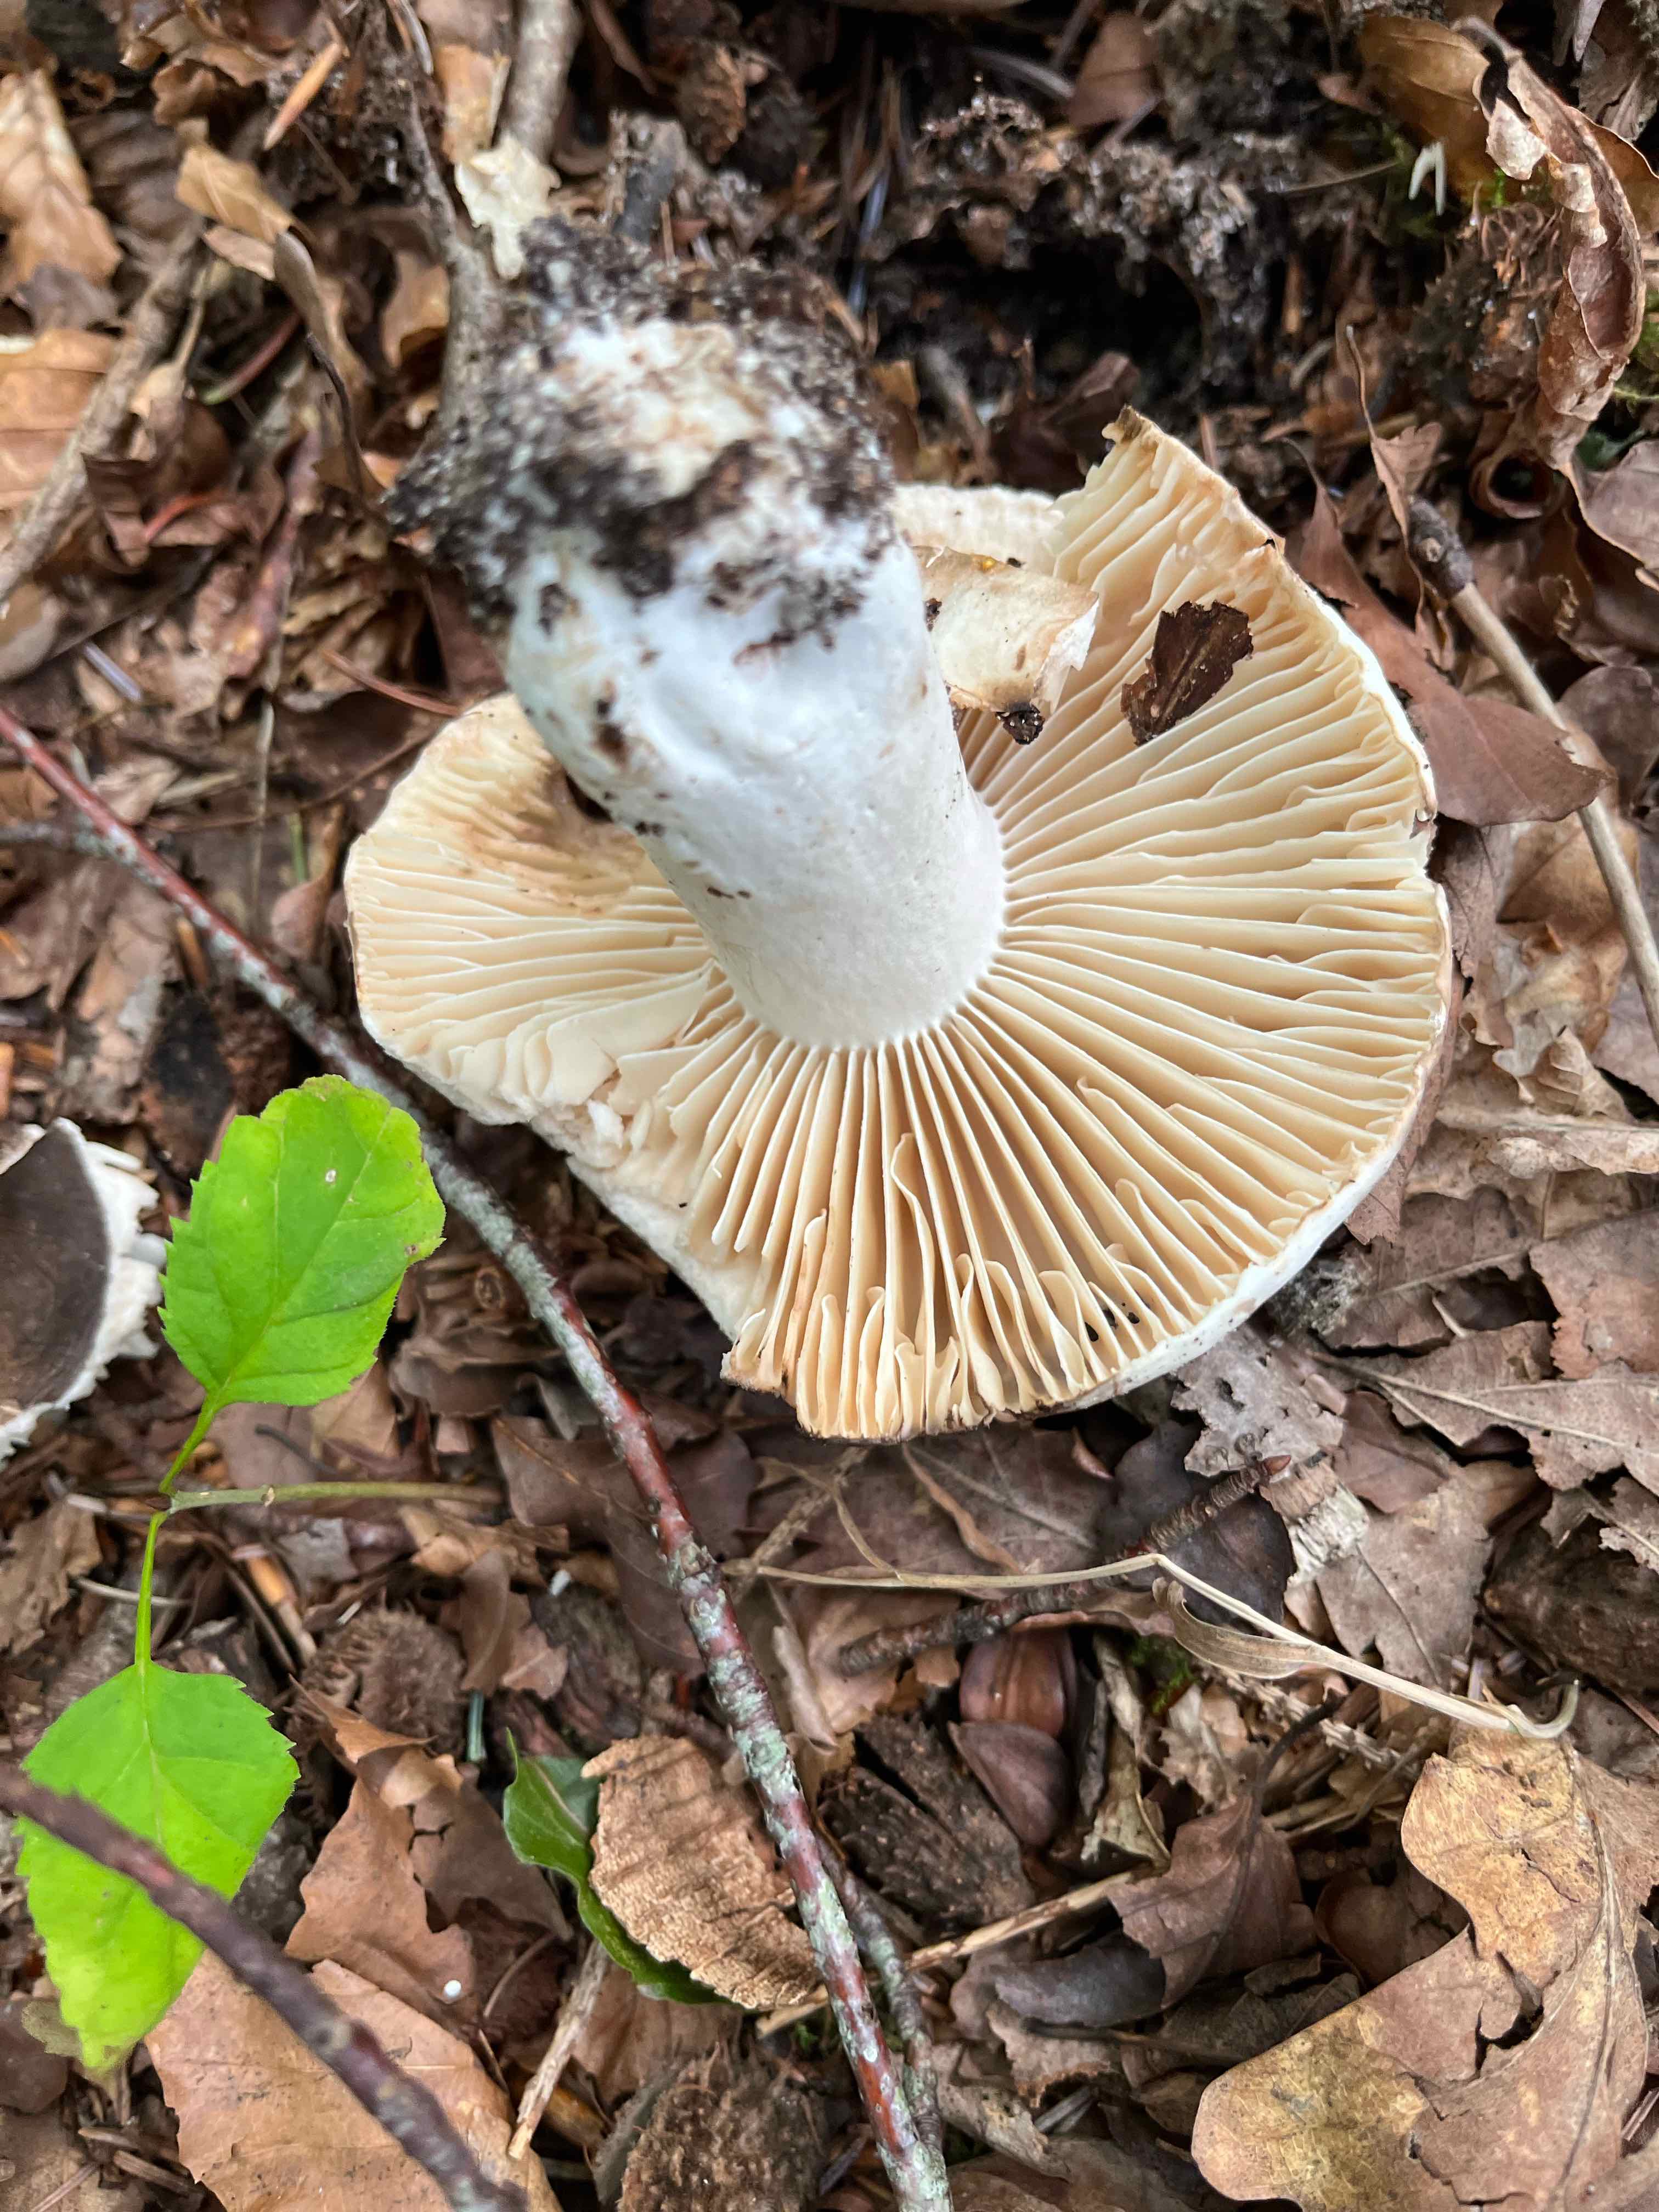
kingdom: Fungi
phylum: Basidiomycota
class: Agaricomycetes
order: Russulales
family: Russulaceae
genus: Russula
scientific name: Russula adusta
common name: sværtende skørhat
